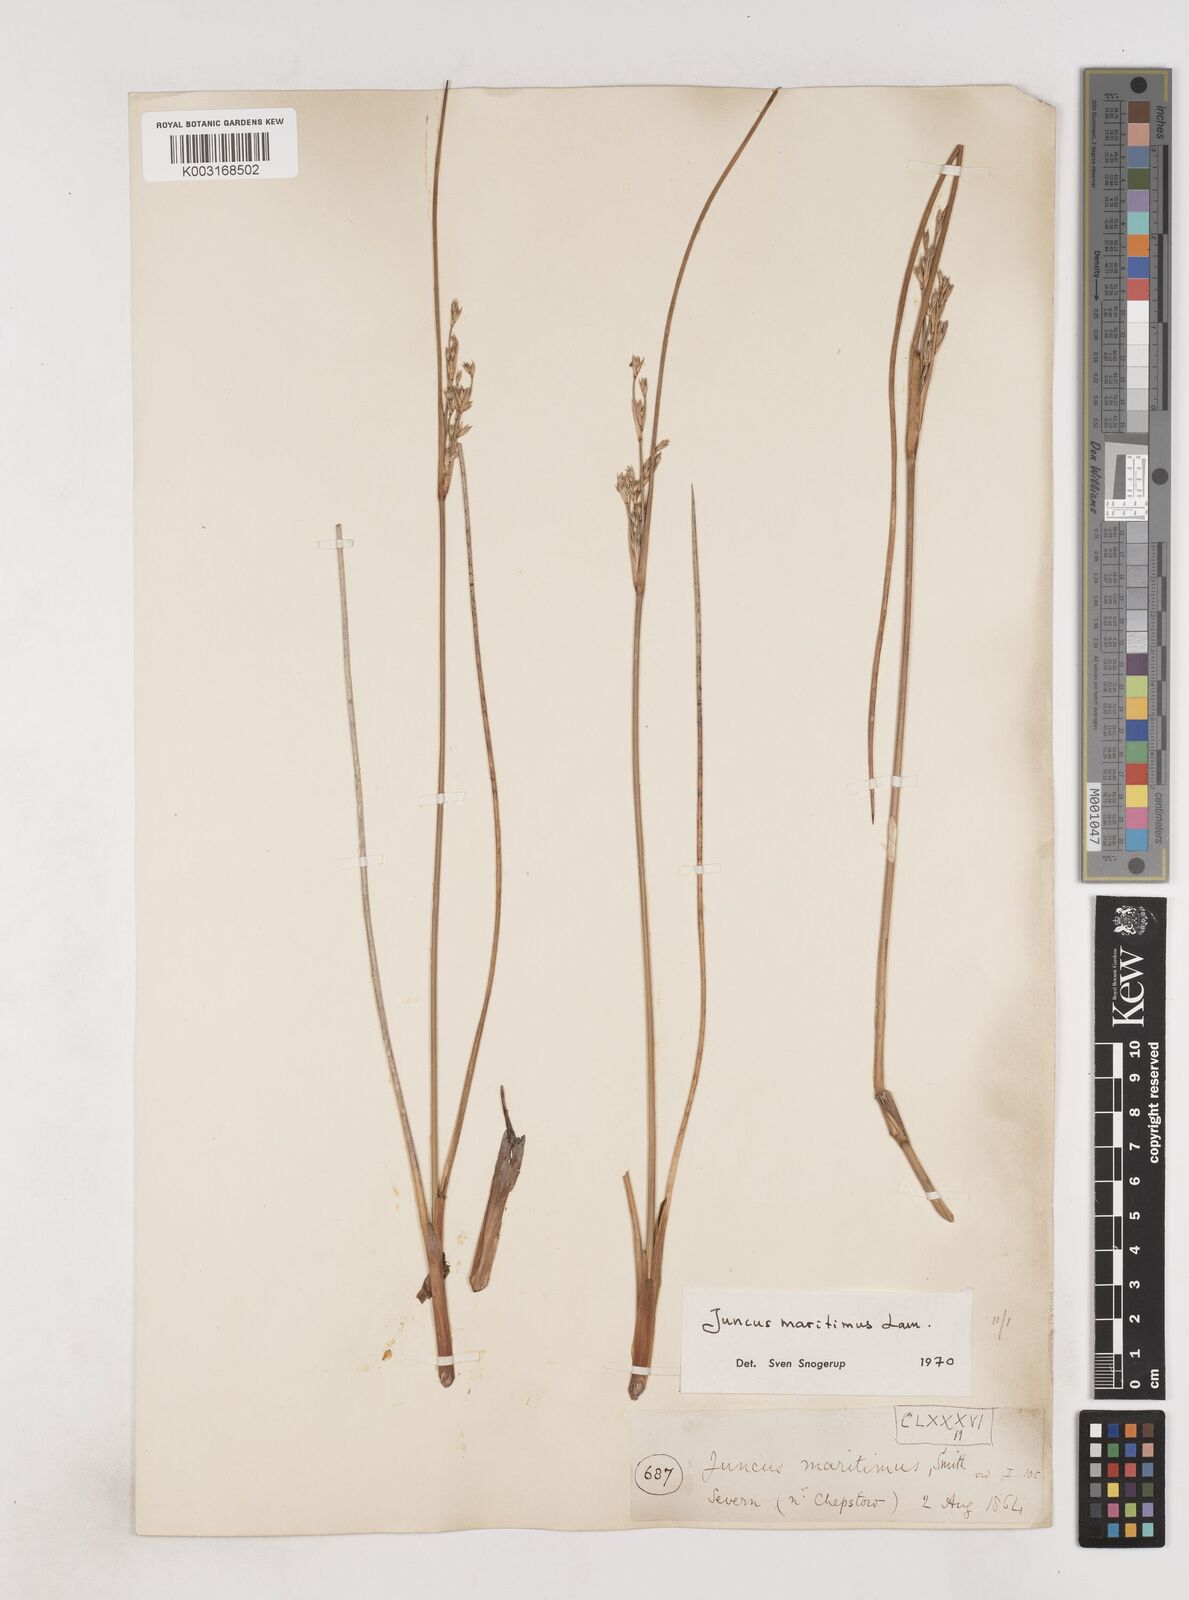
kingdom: Plantae
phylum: Tracheophyta
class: Liliopsida
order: Poales
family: Juncaceae
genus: Juncus
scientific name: Juncus maritimus
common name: Sea rush
